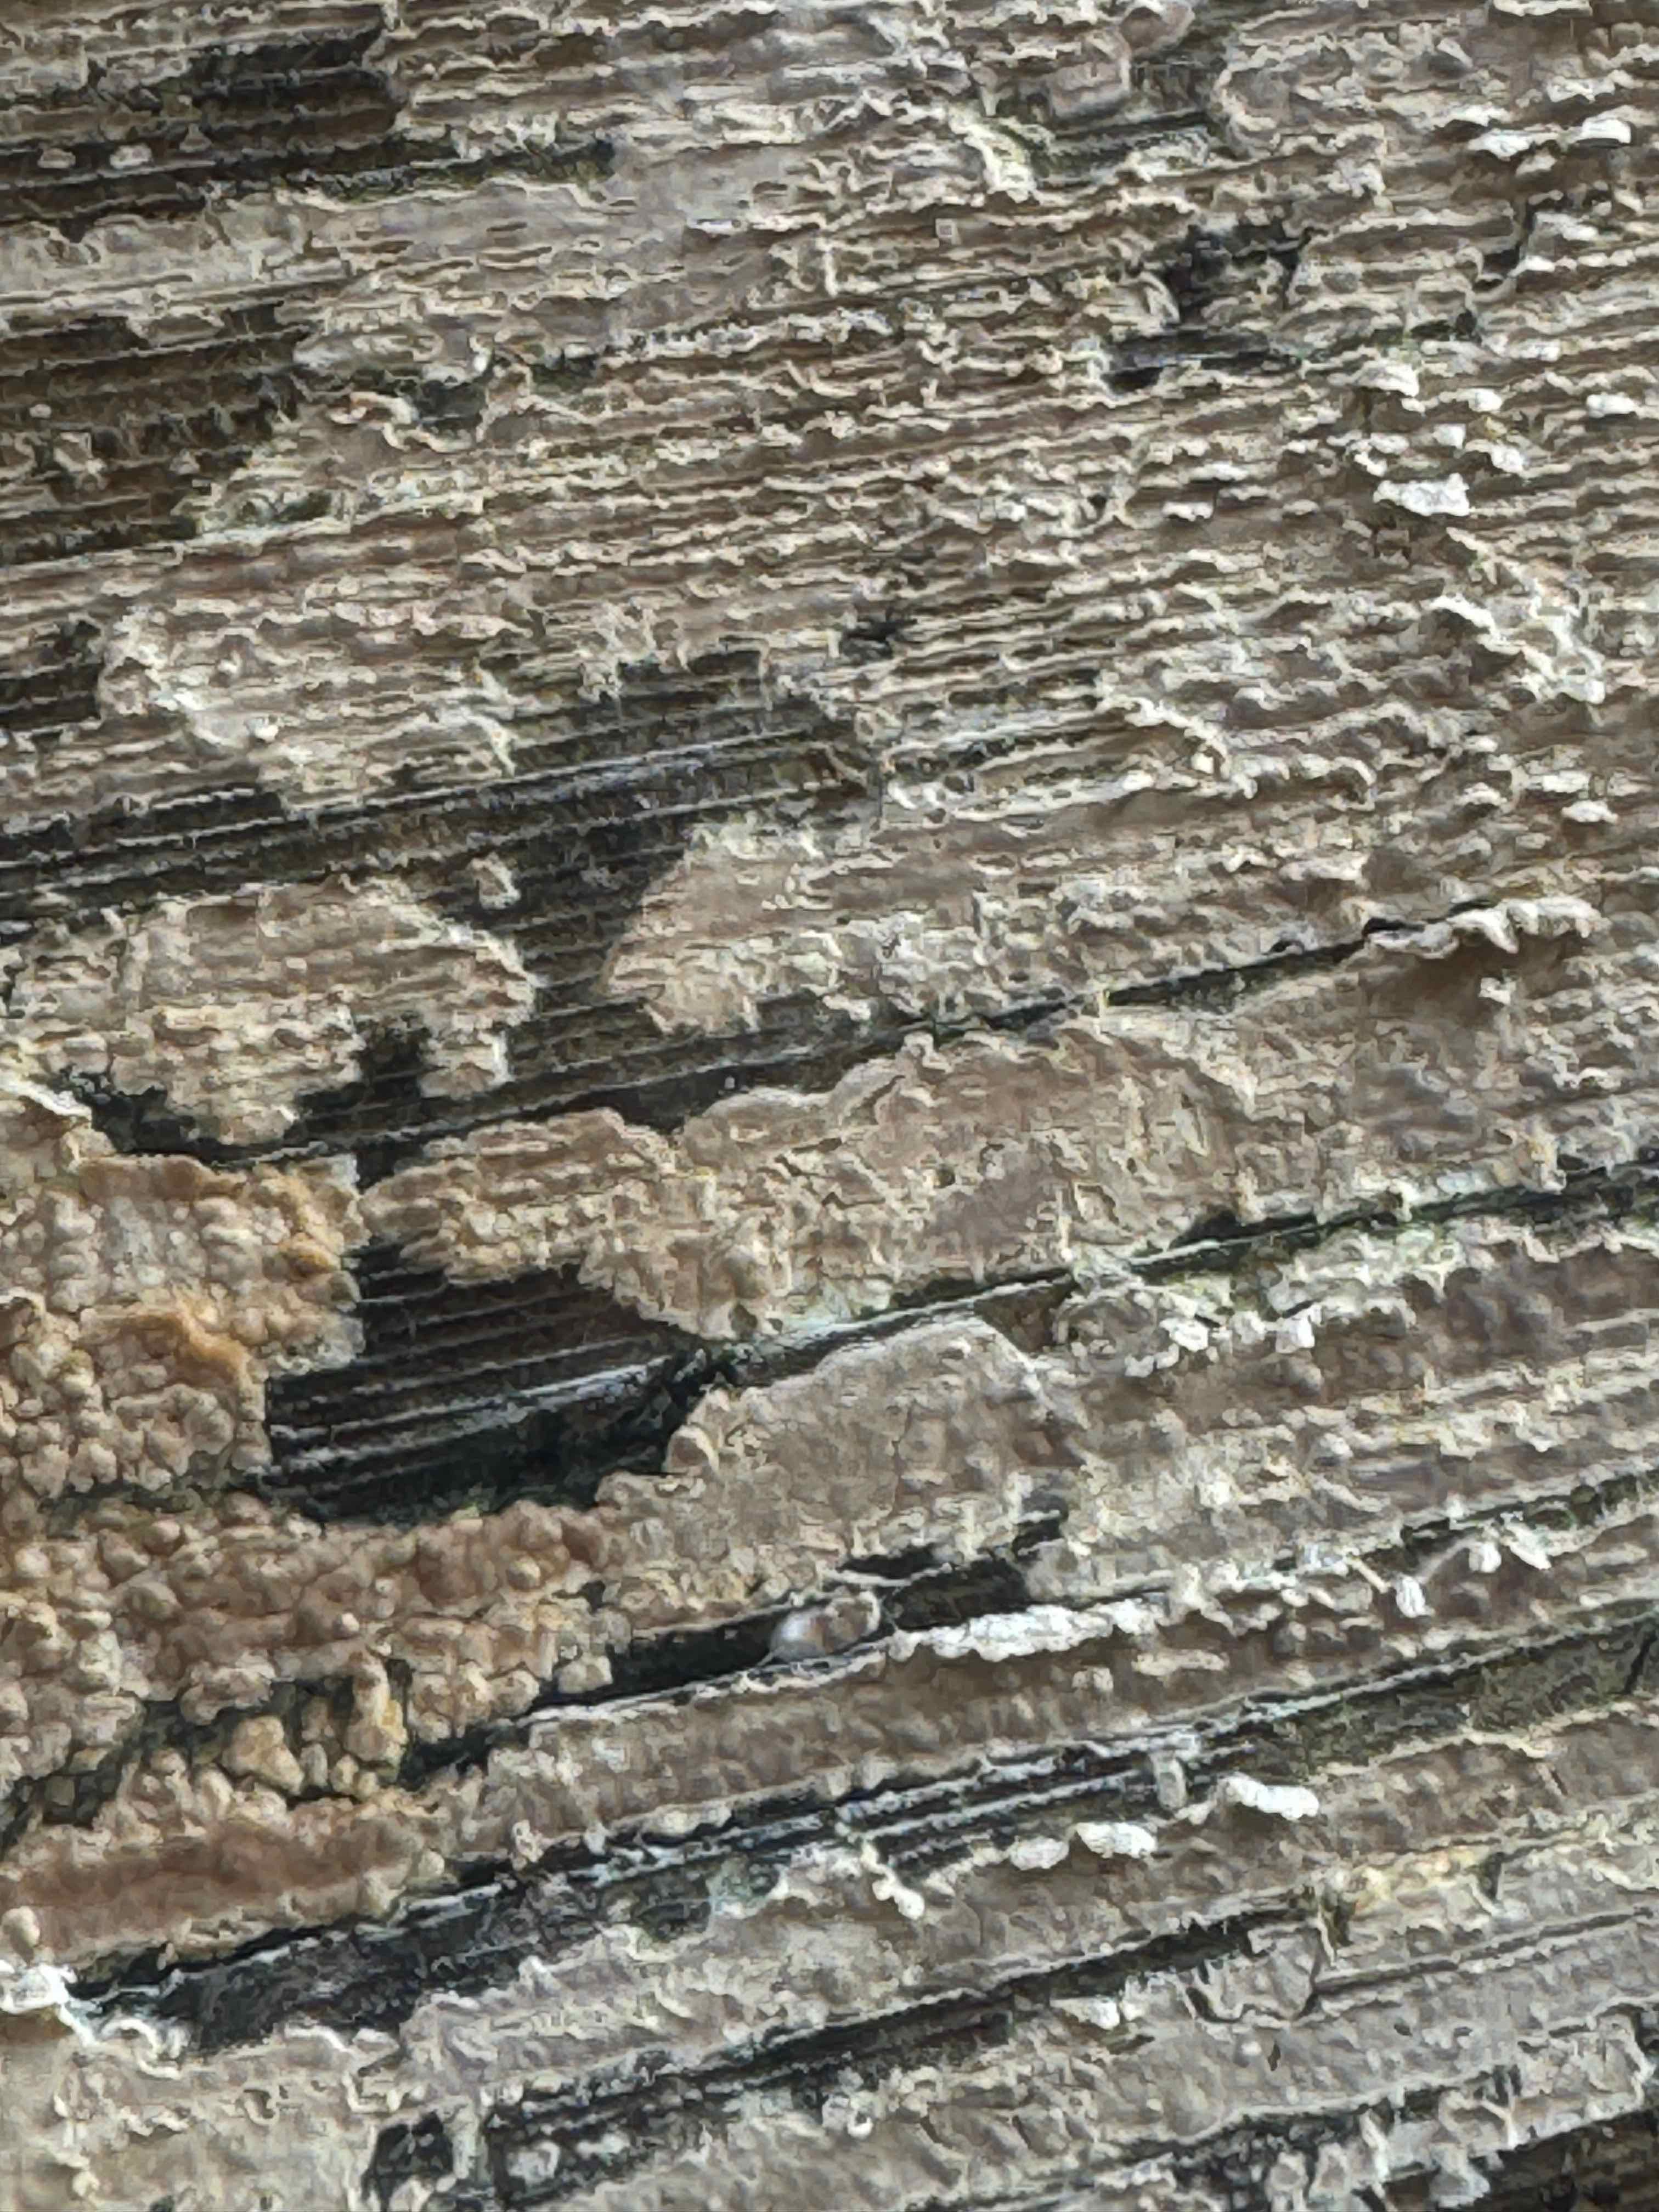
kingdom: Fungi
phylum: Basidiomycota
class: Agaricomycetes
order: Agaricales
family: Physalacriaceae
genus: Cylindrobasidium
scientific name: Cylindrobasidium evolvens
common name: sprækkehinde
